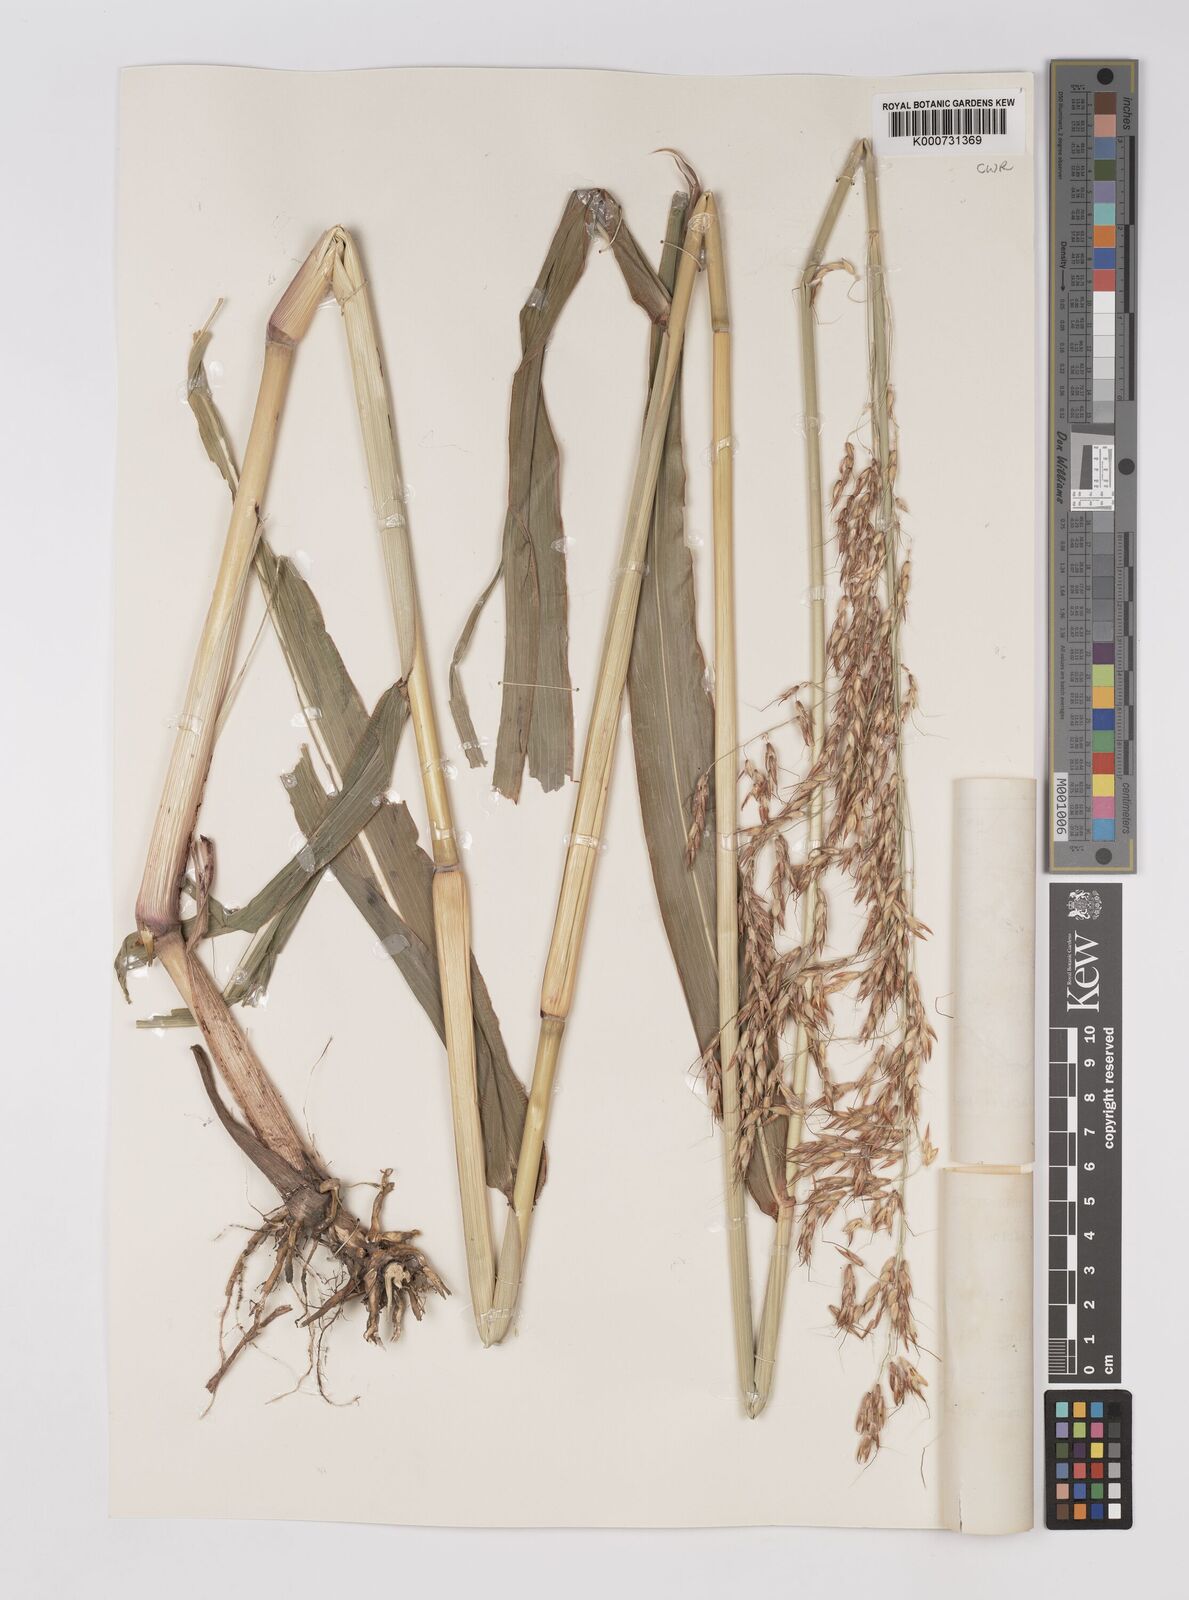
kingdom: Plantae
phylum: Tracheophyta
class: Liliopsida
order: Poales
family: Poaceae
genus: Sorghum
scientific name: Sorghum arundinaceum
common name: Sorghum
